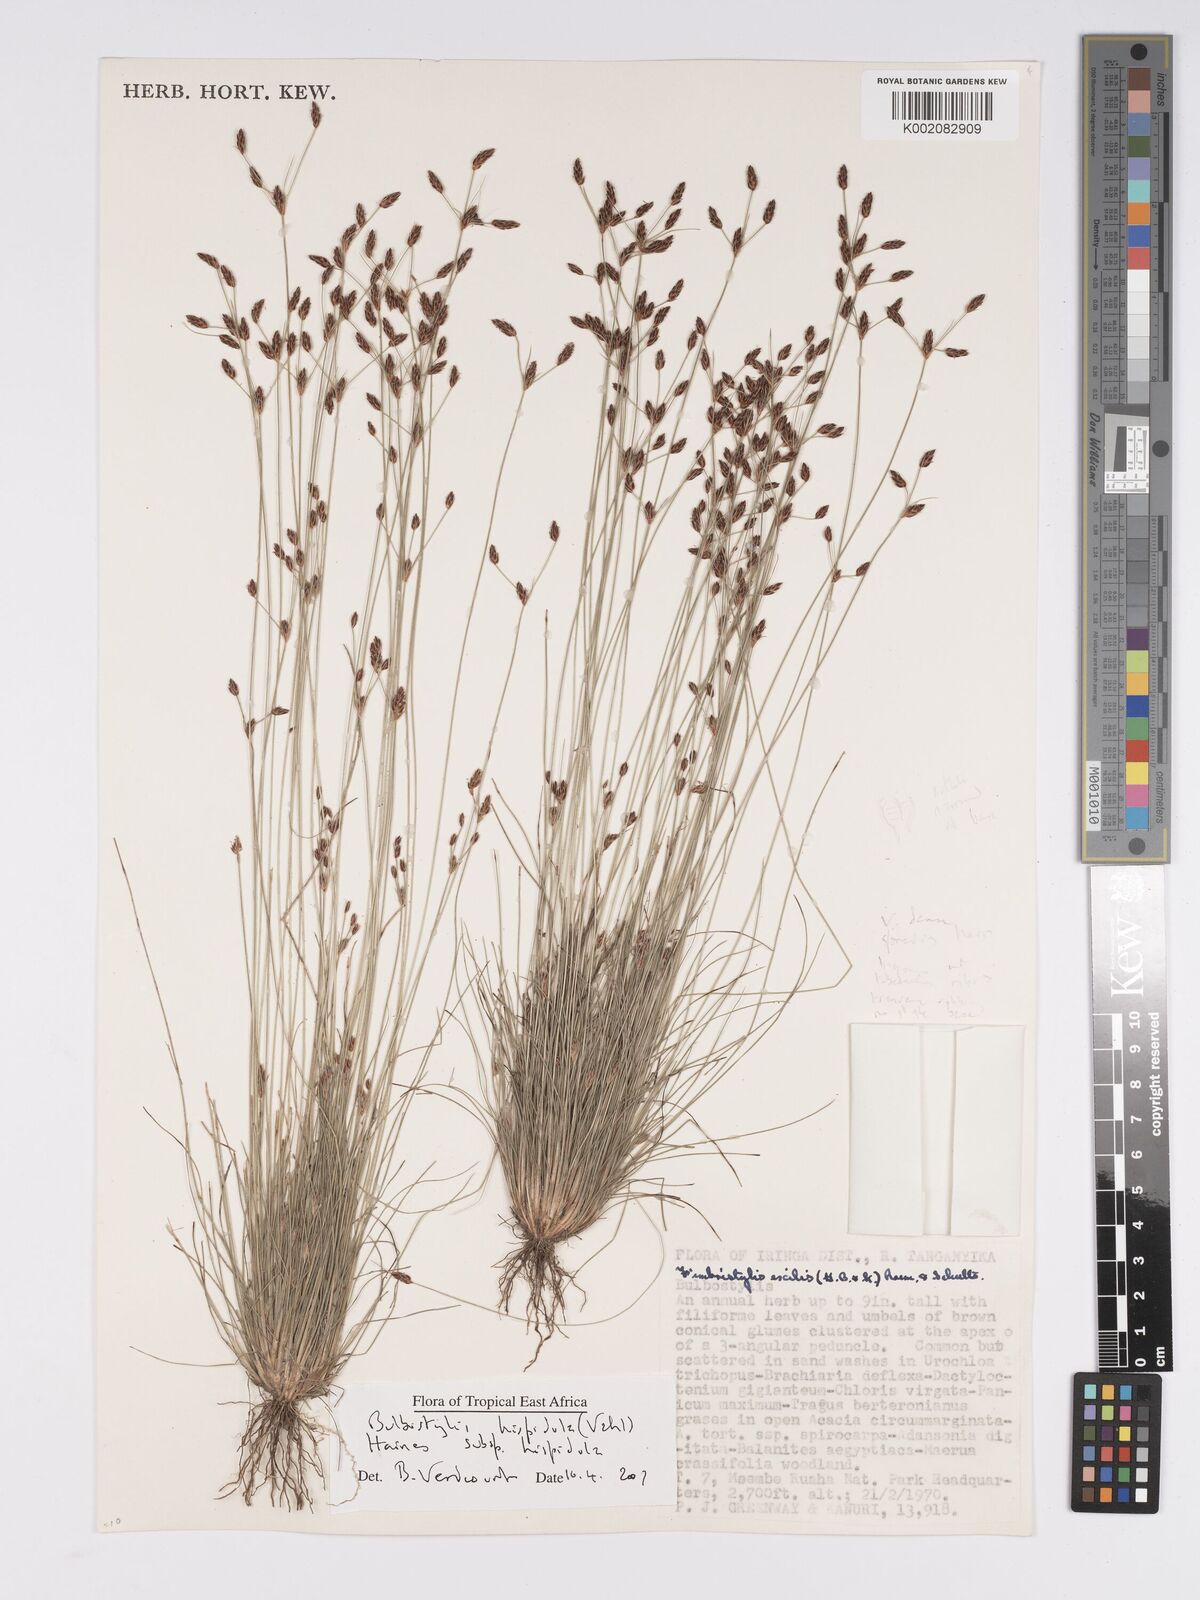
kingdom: Plantae
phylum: Tracheophyta
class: Liliopsida
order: Poales
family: Cyperaceae
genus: Bulbostylis
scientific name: Bulbostylis hispidula
